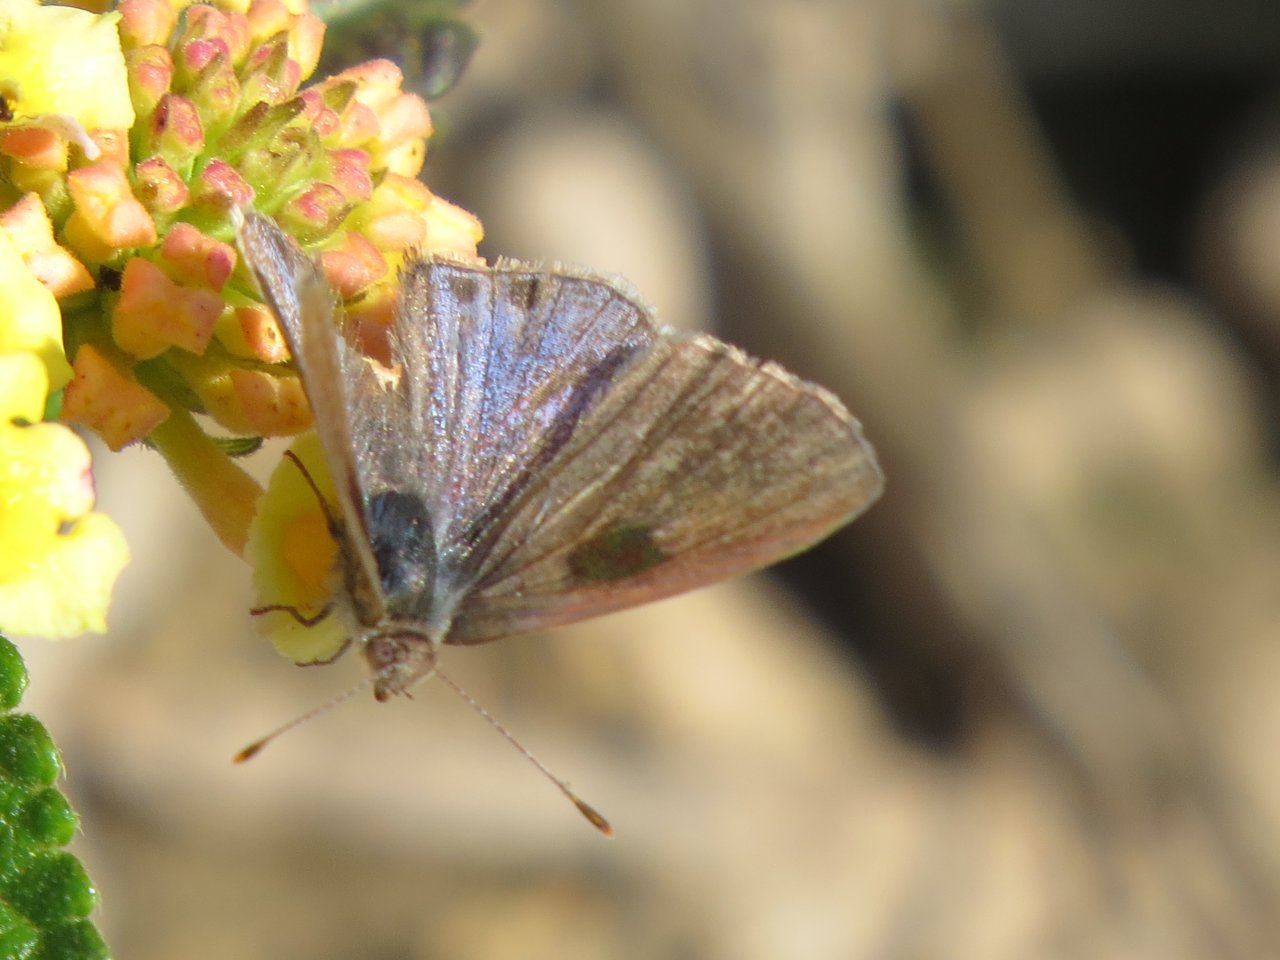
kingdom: Animalia
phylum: Arthropoda
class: Insecta
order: Lepidoptera
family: Lycaenidae
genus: Callicista
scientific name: Callicista columella
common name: Mallow Scrub-Hairstreak
